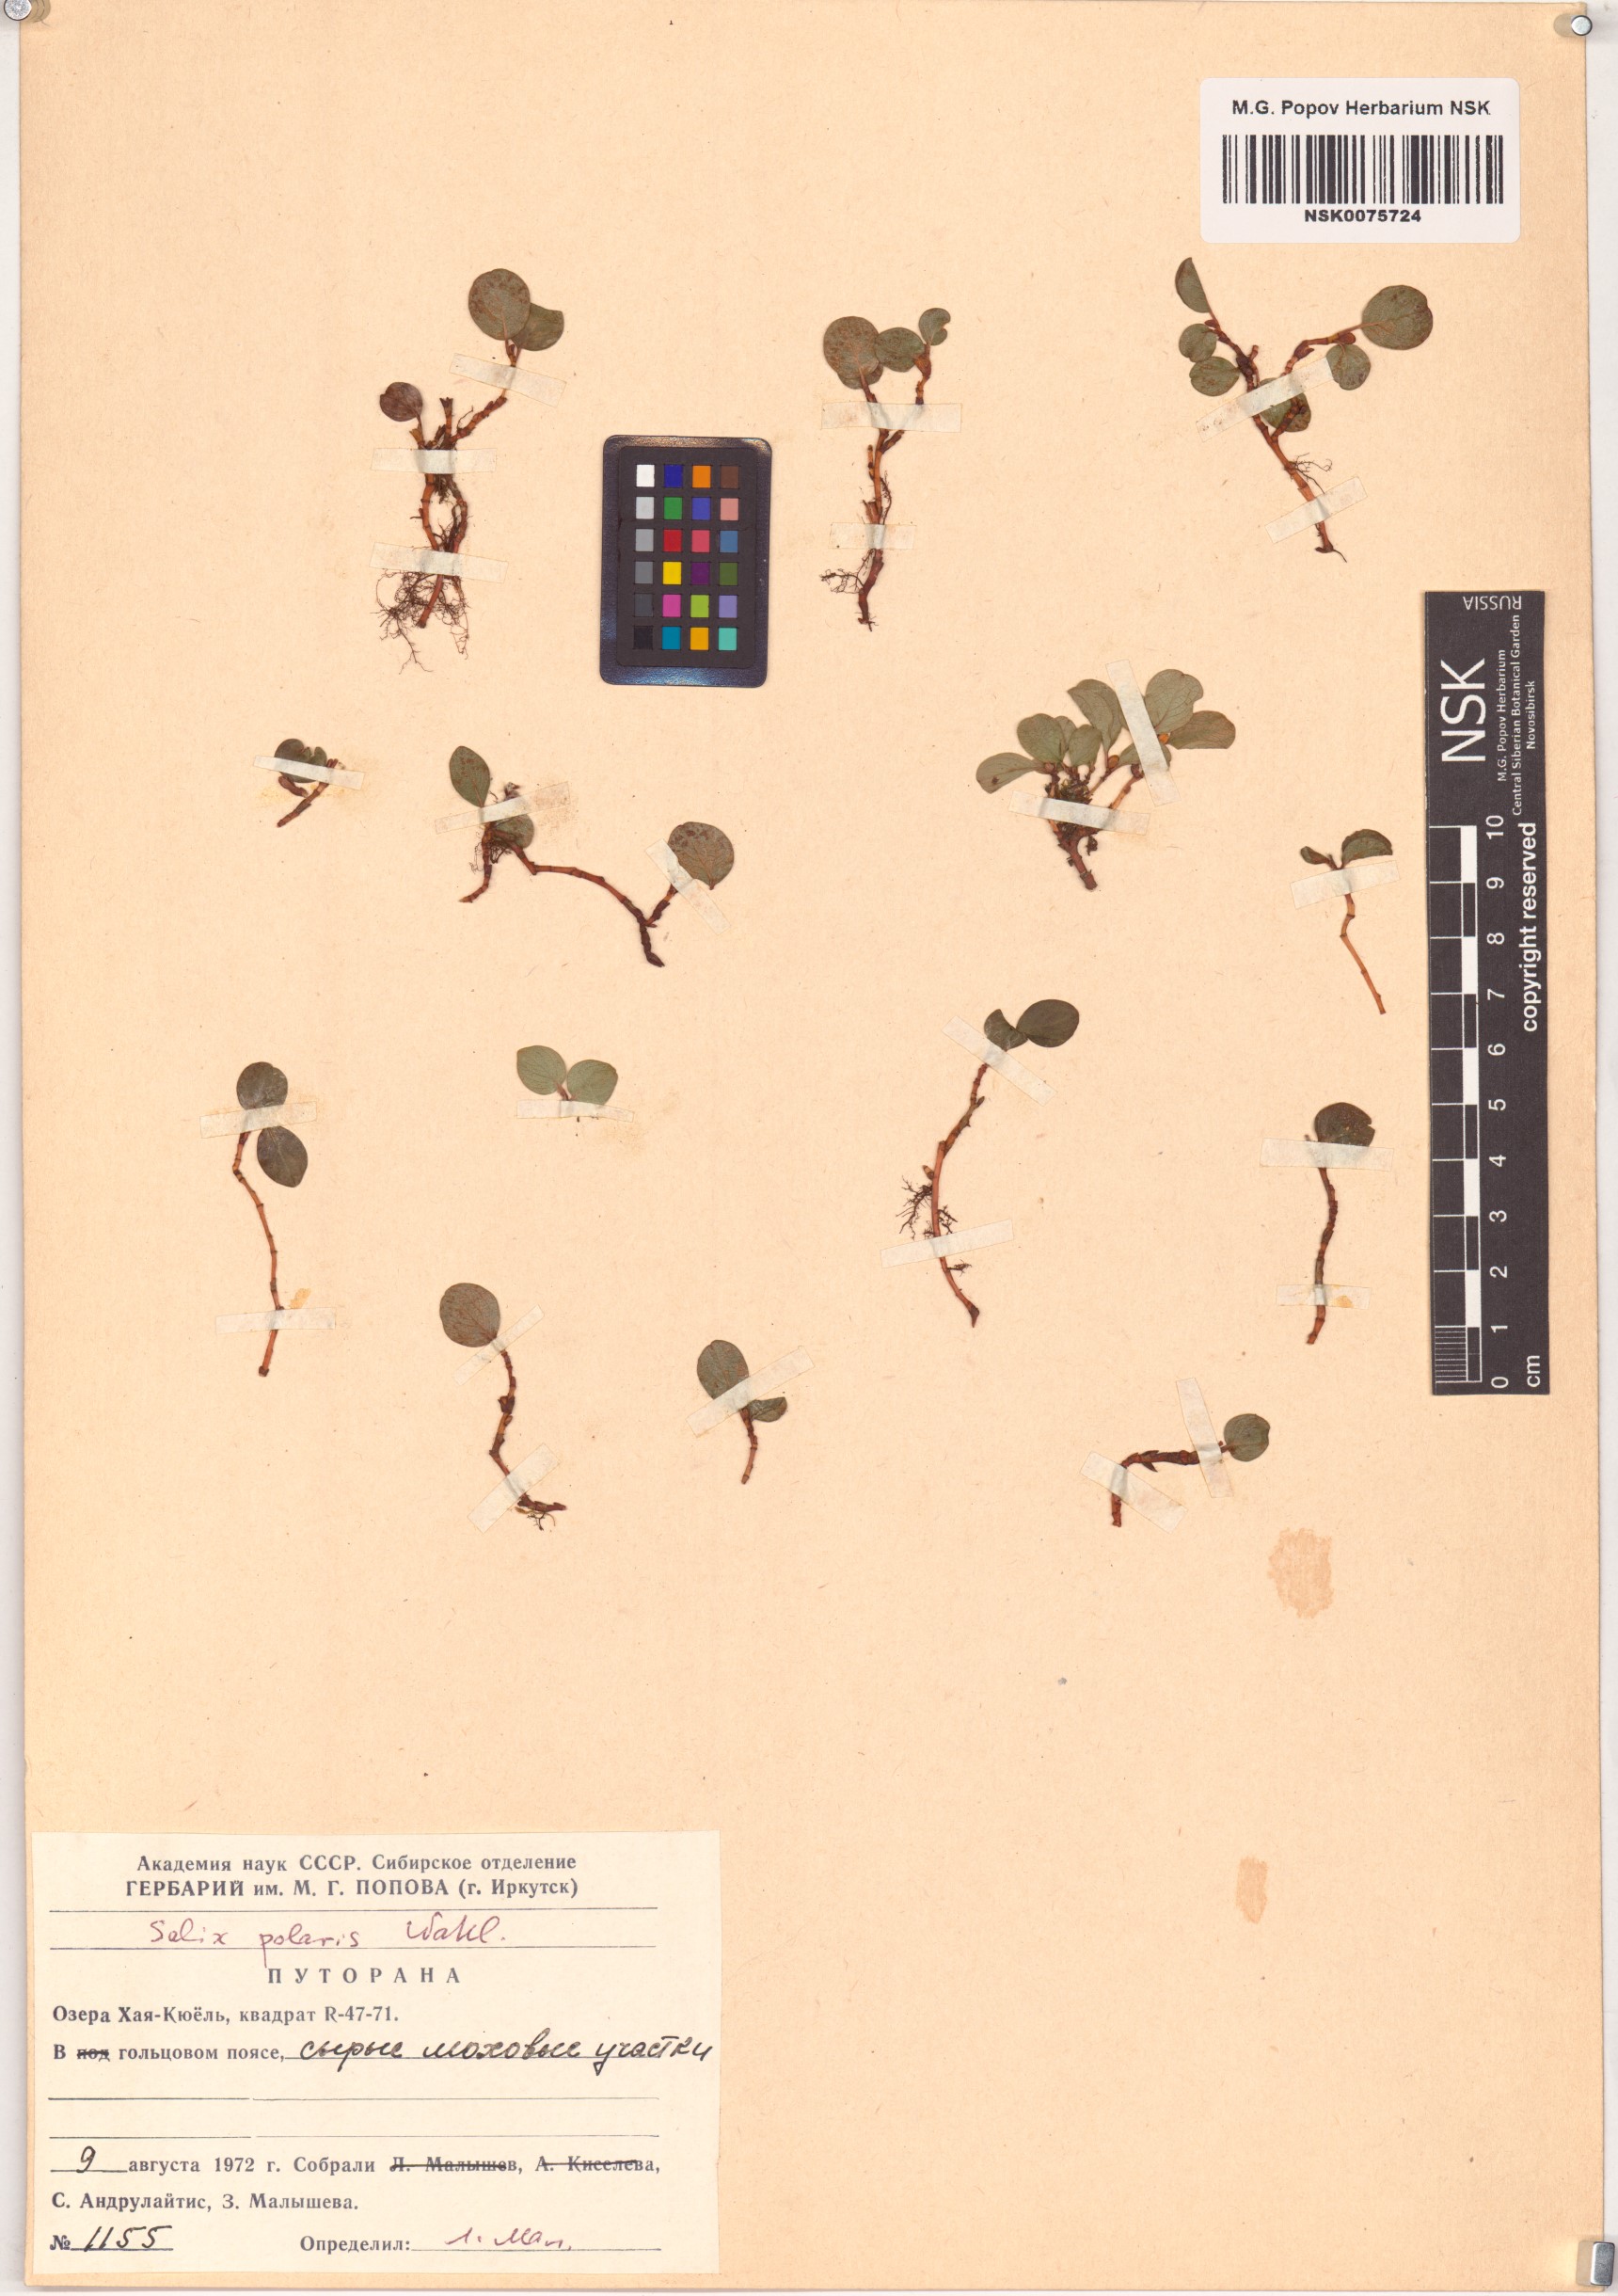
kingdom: Plantae
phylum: Tracheophyta
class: Magnoliopsida
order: Malpighiales
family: Salicaceae
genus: Salix
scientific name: Salix polaris
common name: Polar willow
